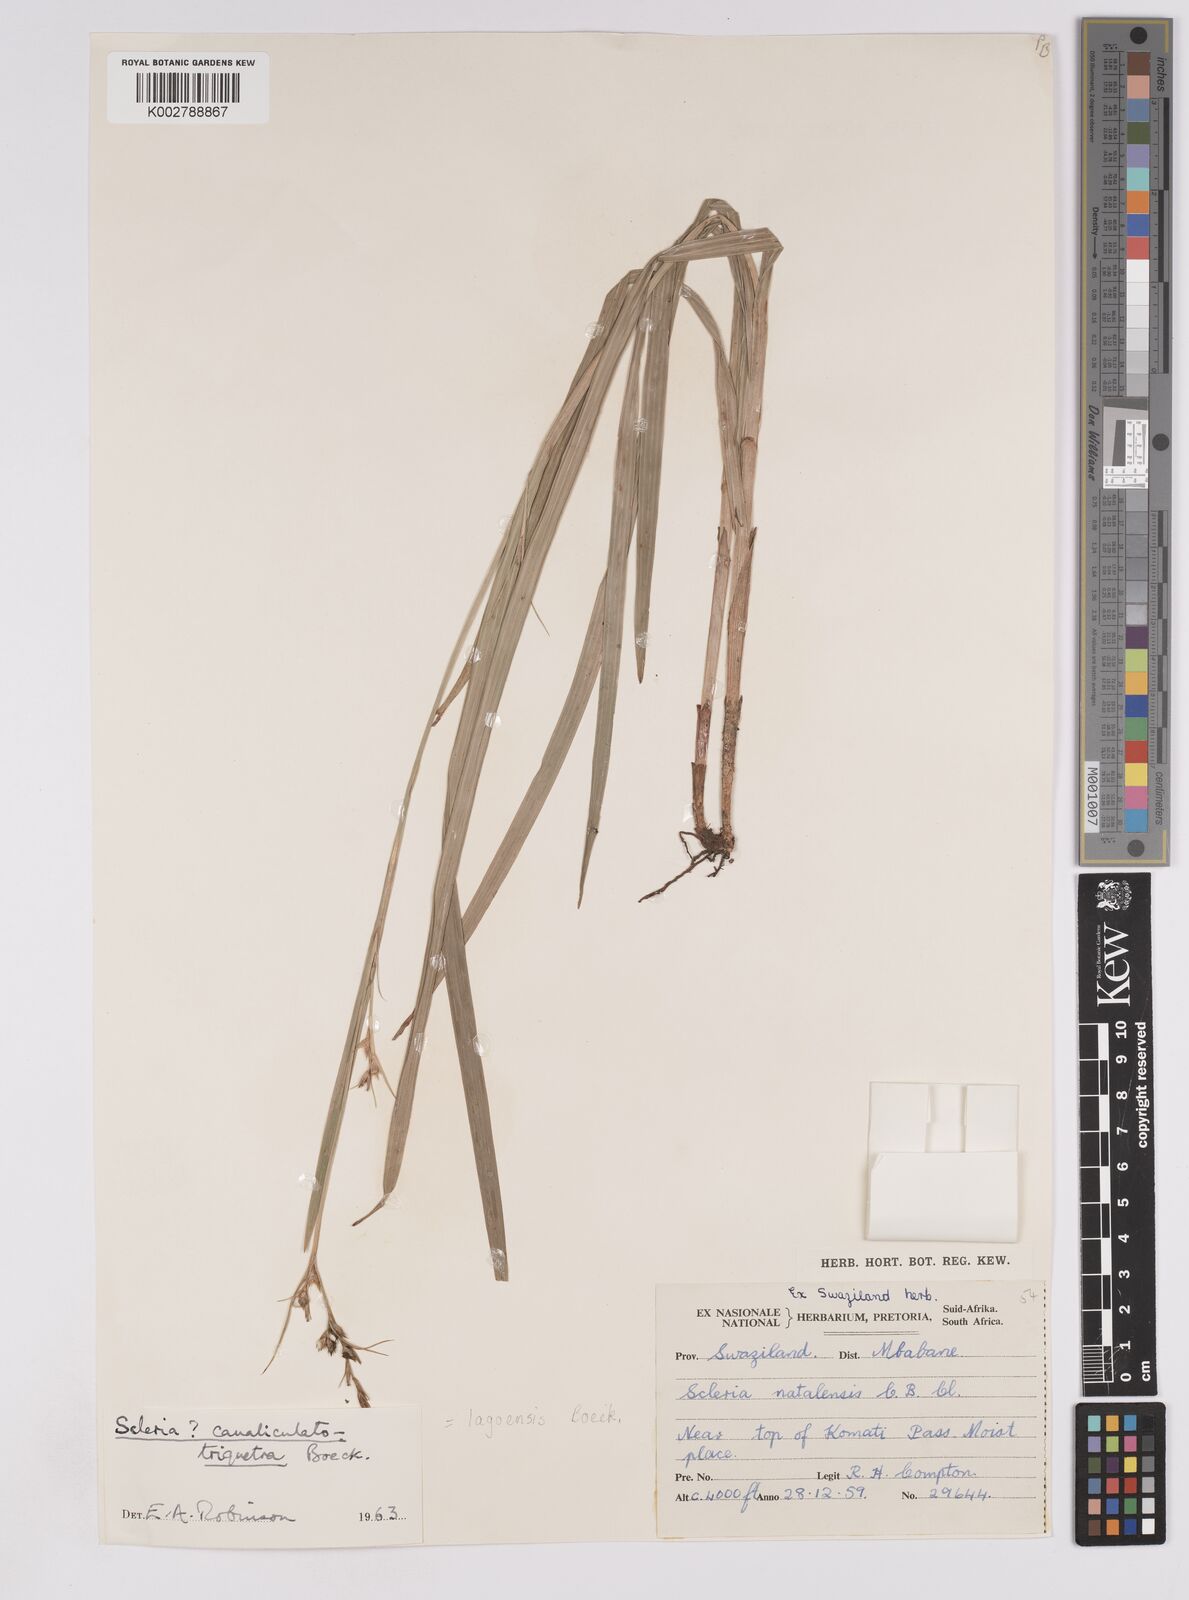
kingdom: Plantae
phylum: Tracheophyta
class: Liliopsida
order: Poales
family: Cyperaceae
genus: Scleria
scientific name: Scleria lagoensis
